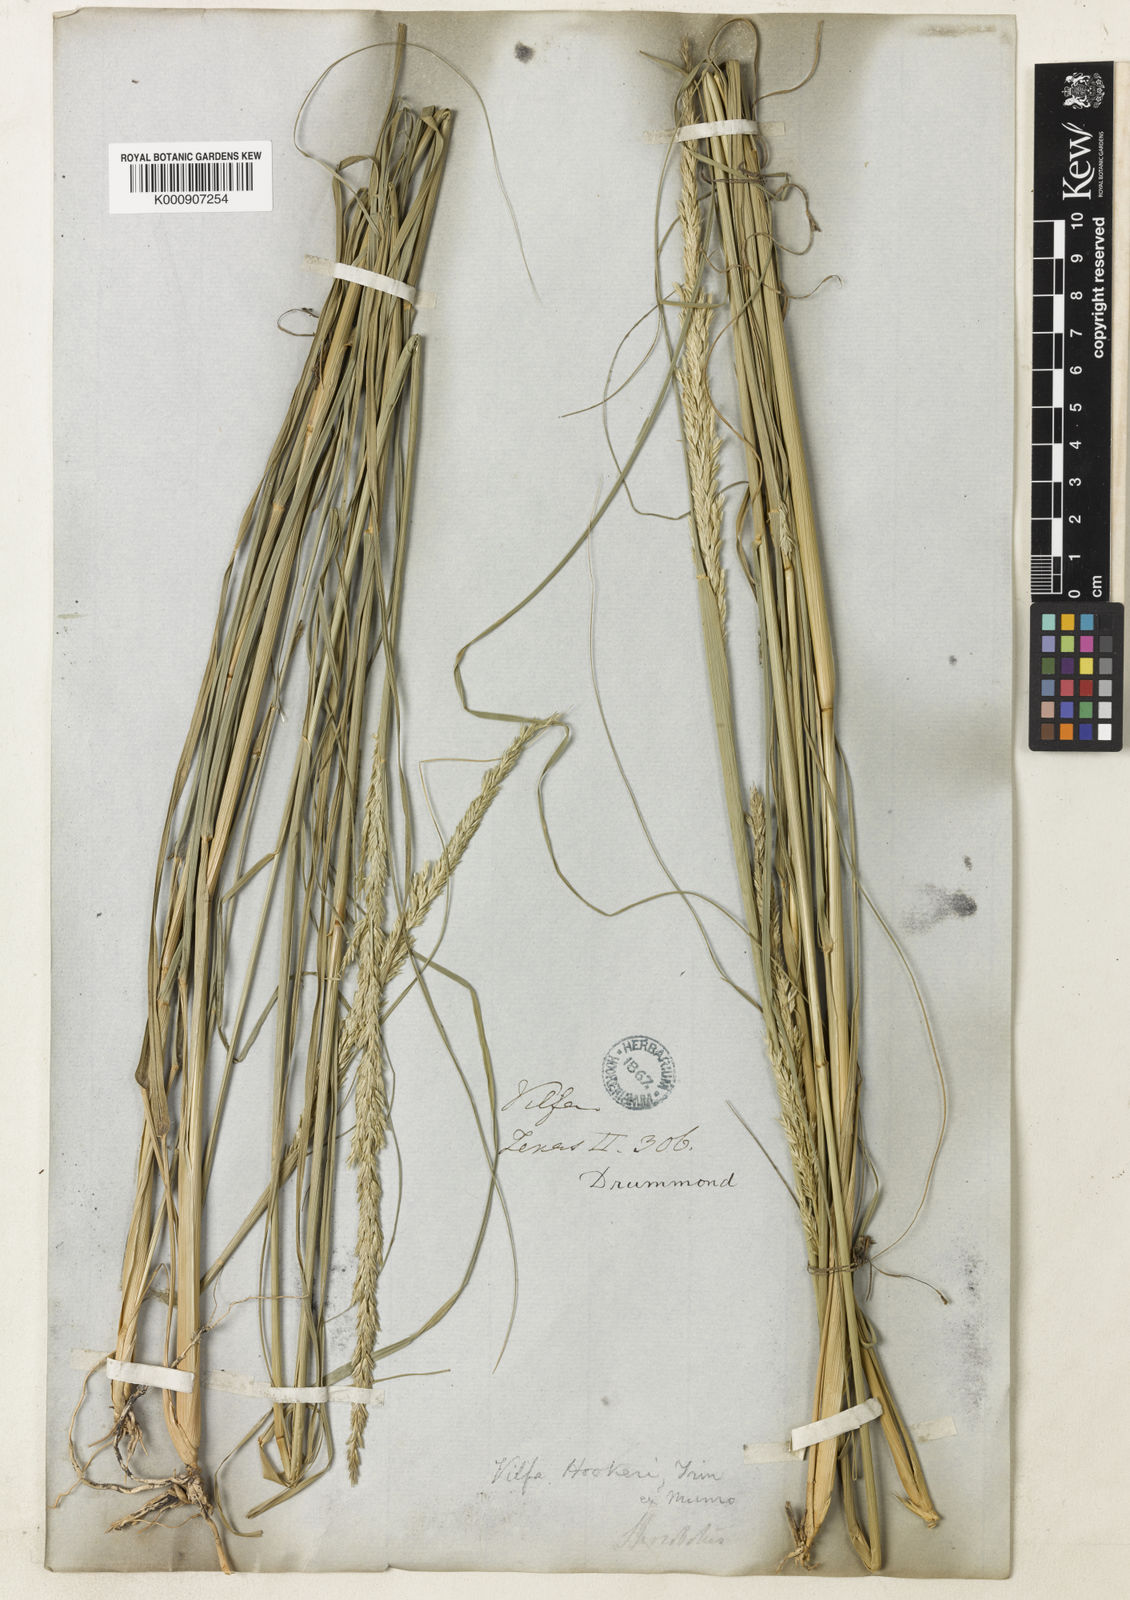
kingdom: Plantae
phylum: Tracheophyta
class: Liliopsida
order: Poales
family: Poaceae
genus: Sporobolus
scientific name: Sporobolus compositus
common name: Rough dropseed
